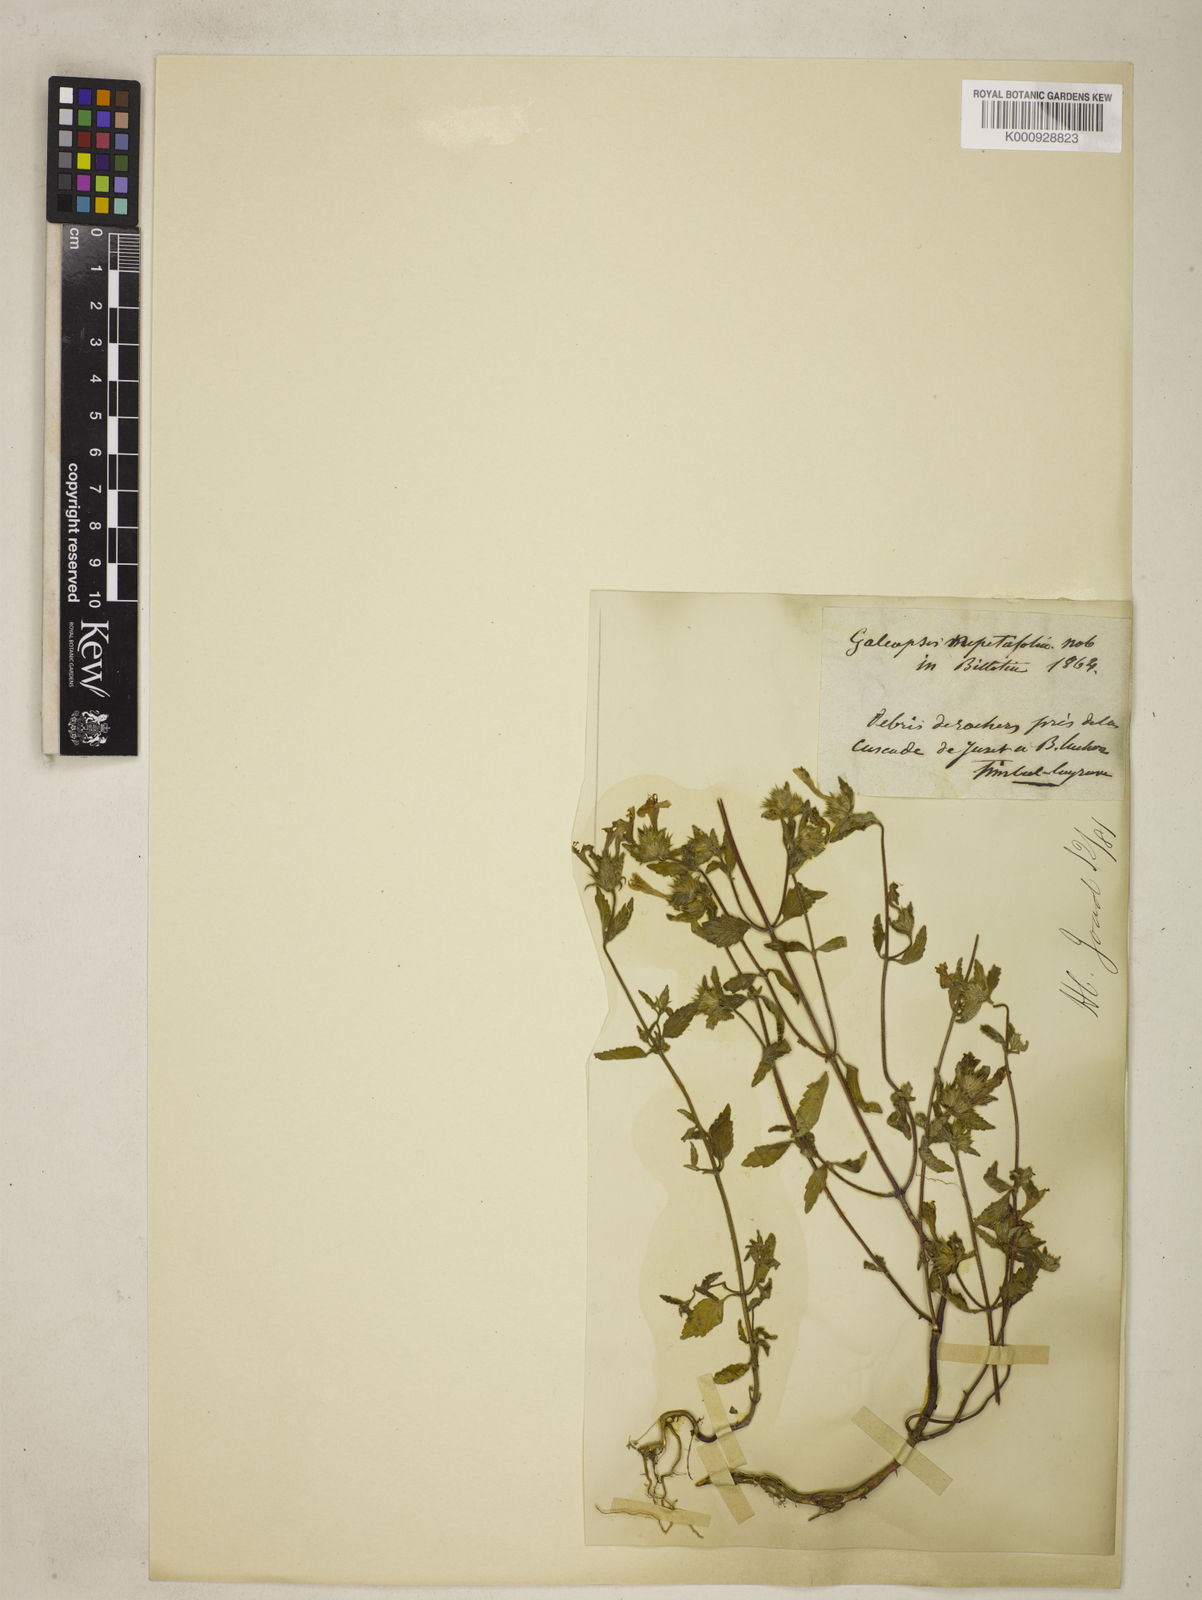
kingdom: Plantae
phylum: Tracheophyta
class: Magnoliopsida
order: Lamiales
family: Lamiaceae
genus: Galeopsis
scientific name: Galeopsis speciosa
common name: Large-flowered hemp-nettle
